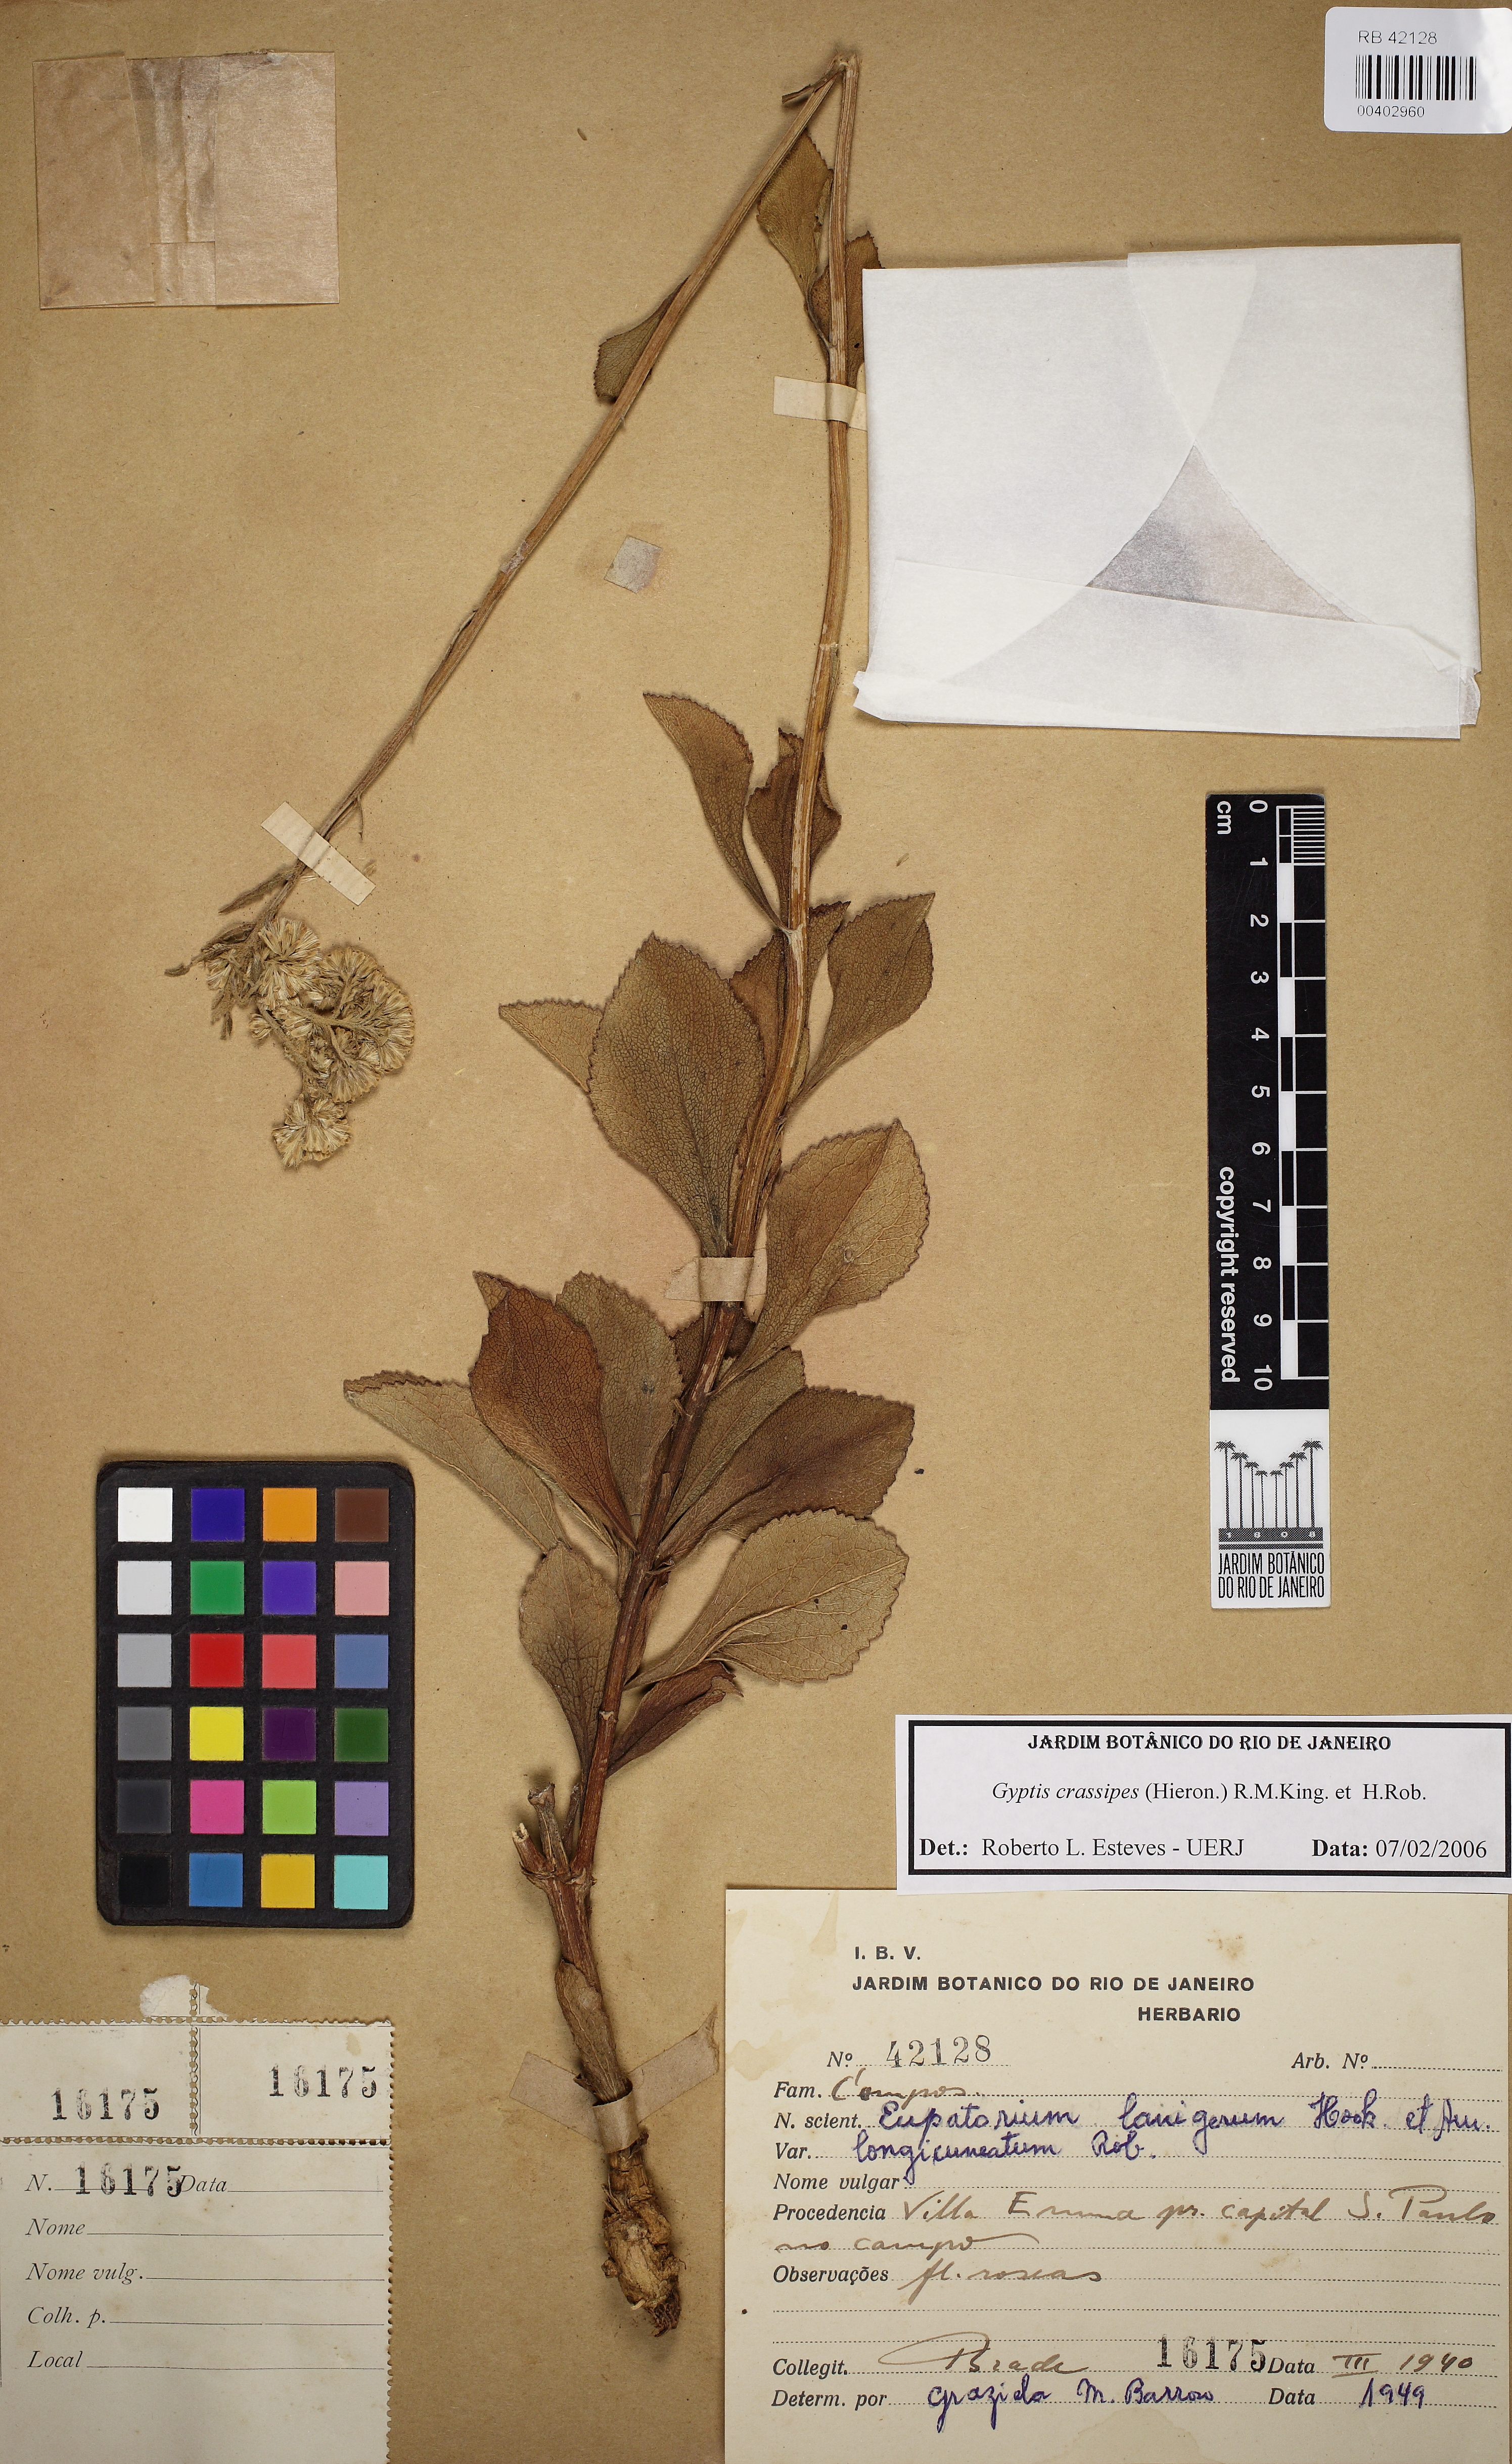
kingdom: Plantae
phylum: Tracheophyta
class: Magnoliopsida
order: Asterales
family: Asteraceae
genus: Gyptis
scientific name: Gyptis crassipes
